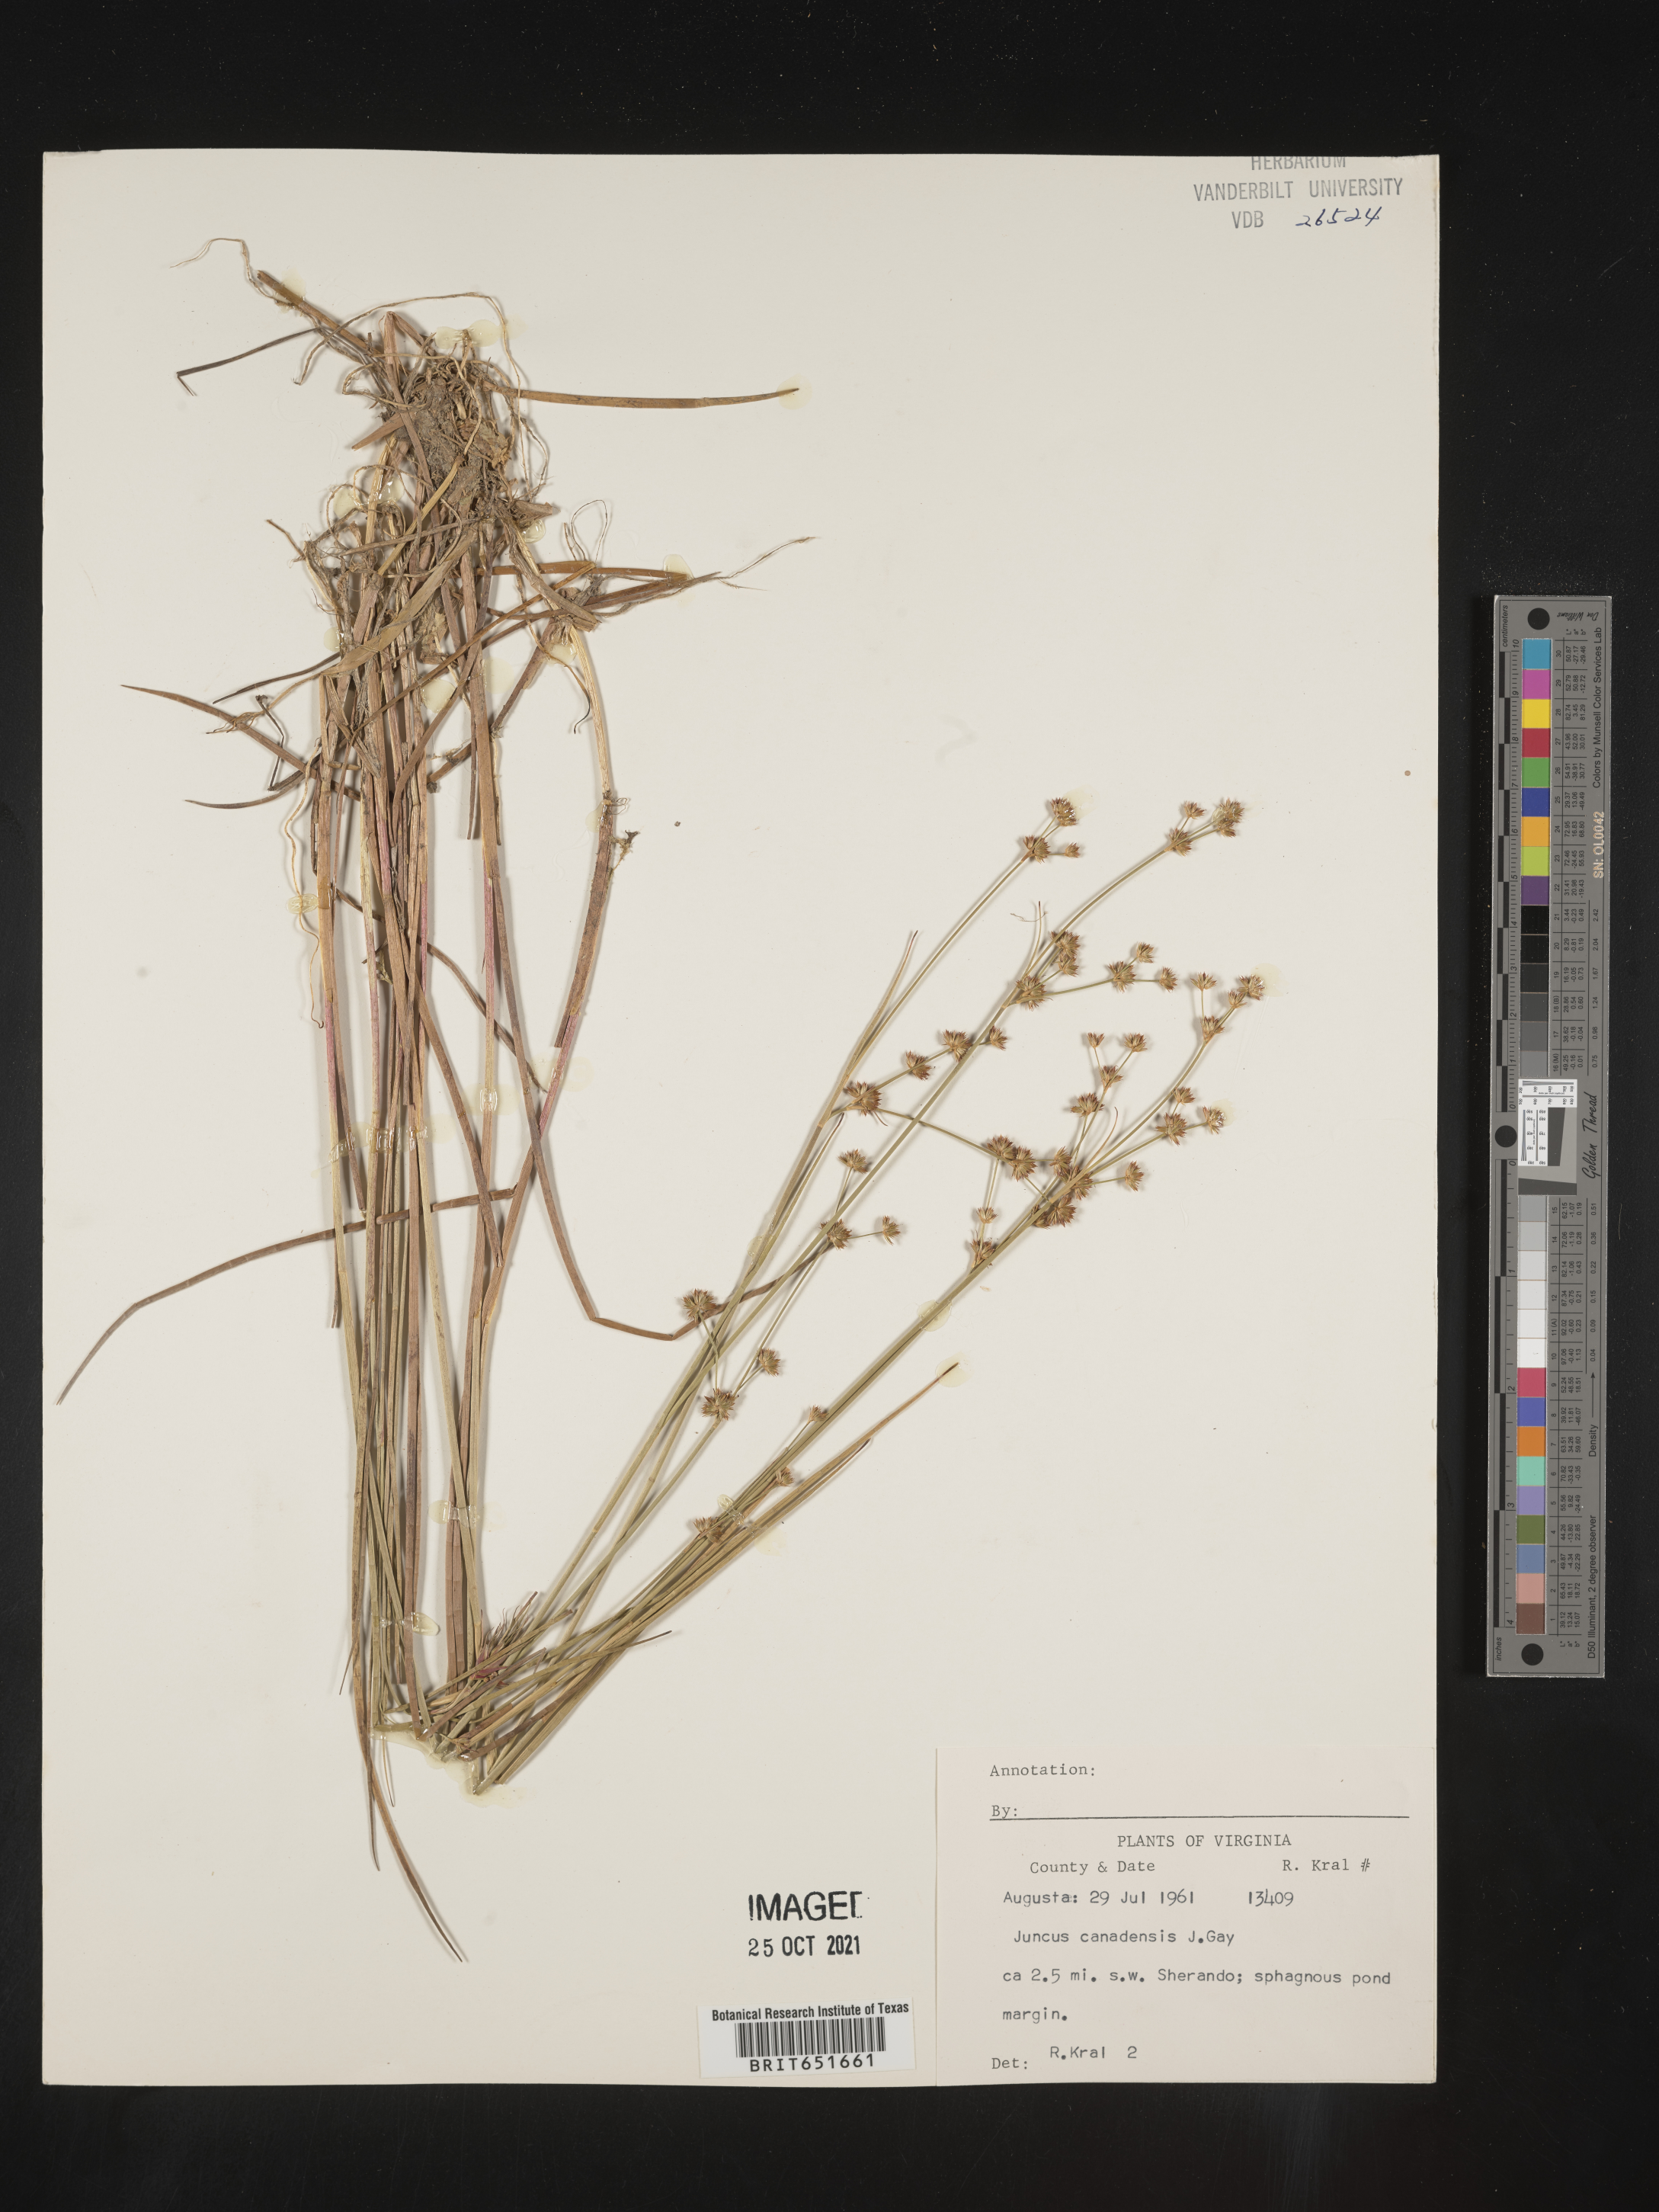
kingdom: Plantae
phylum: Tracheophyta
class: Liliopsida
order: Poales
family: Juncaceae
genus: Juncus
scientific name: Juncus canadensis
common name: Canada rush
